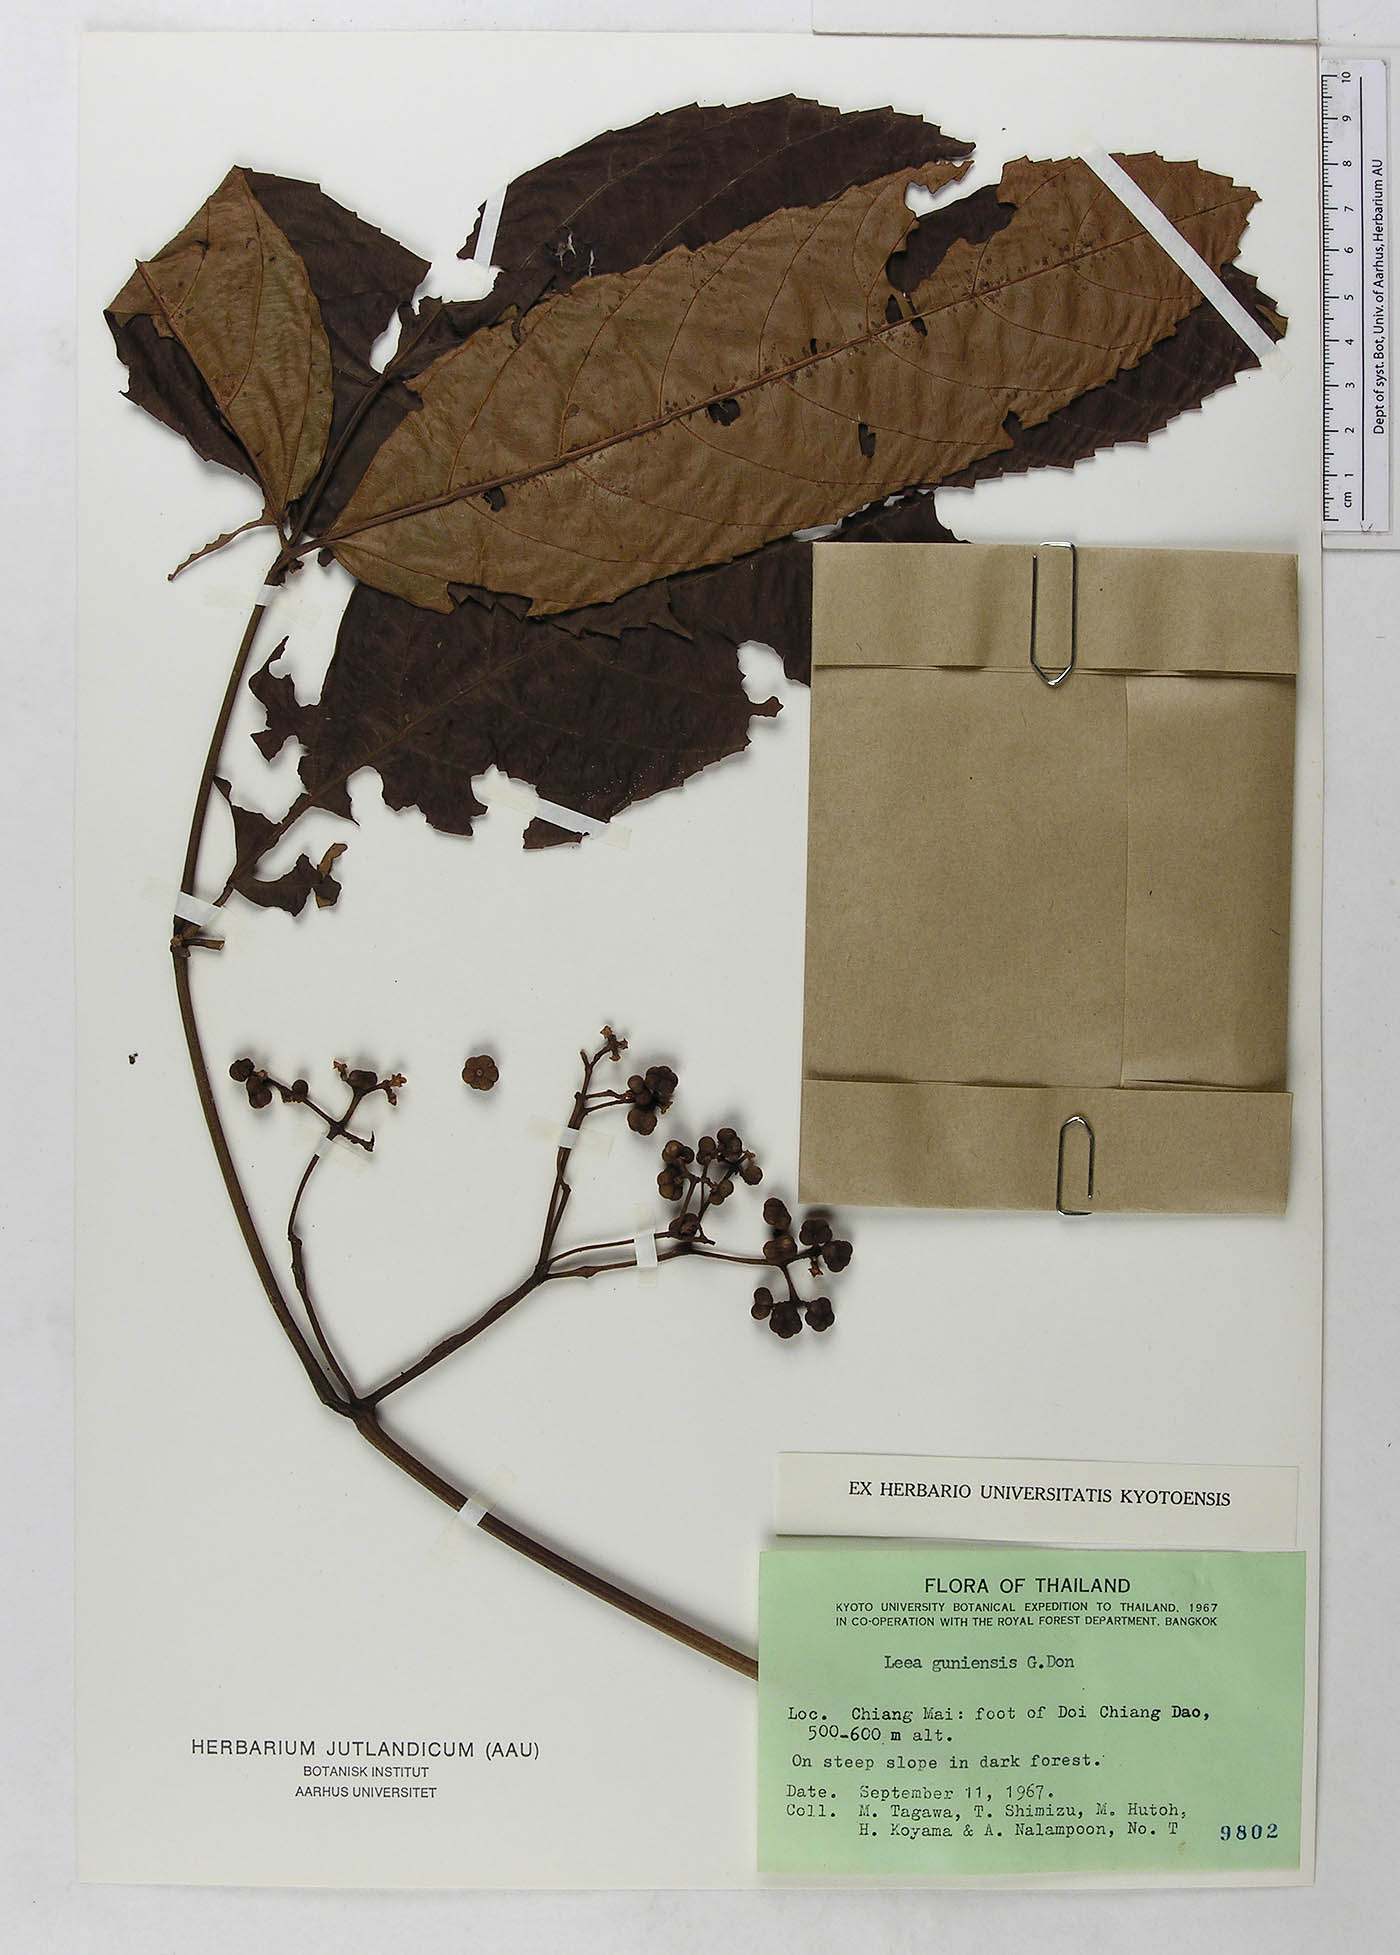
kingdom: Plantae
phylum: Tracheophyta
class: Magnoliopsida
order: Vitales
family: Vitaceae
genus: Leea
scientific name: Leea guineensis
